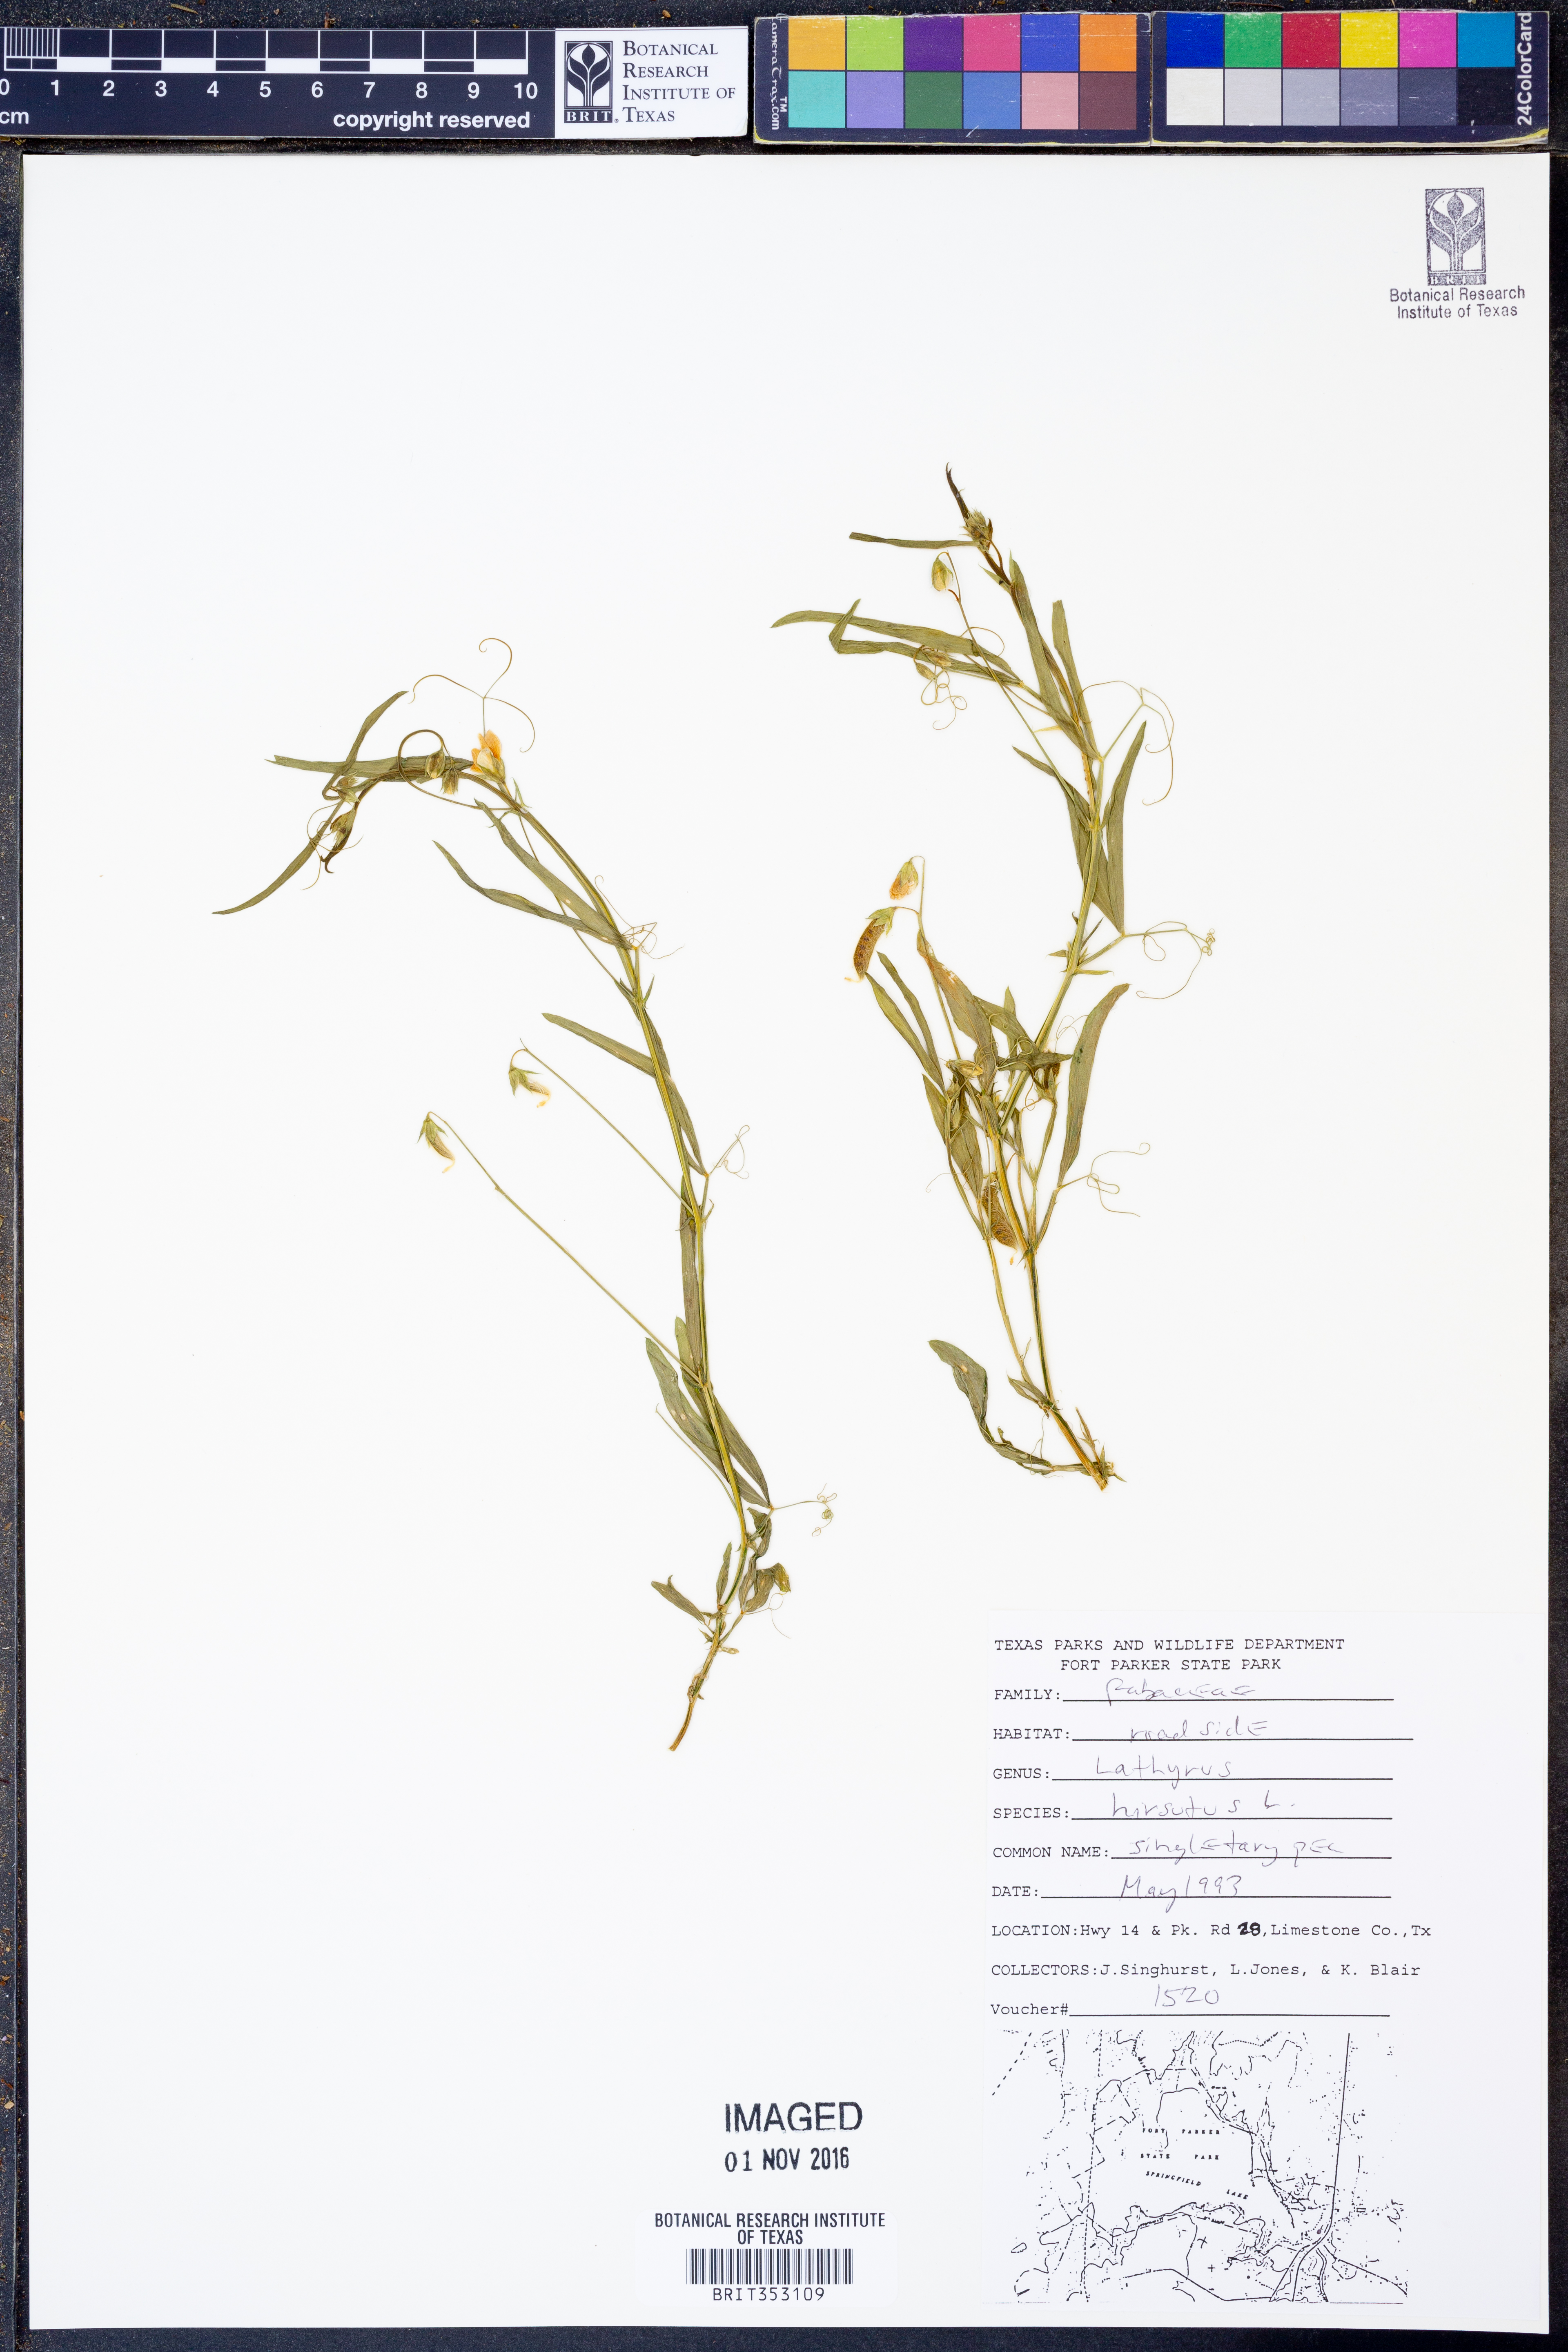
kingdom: Plantae
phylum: Tracheophyta
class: Magnoliopsida
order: Fabales
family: Fabaceae
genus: Lathyrus
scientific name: Lathyrus hirsutus
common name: Hairy vetchling
